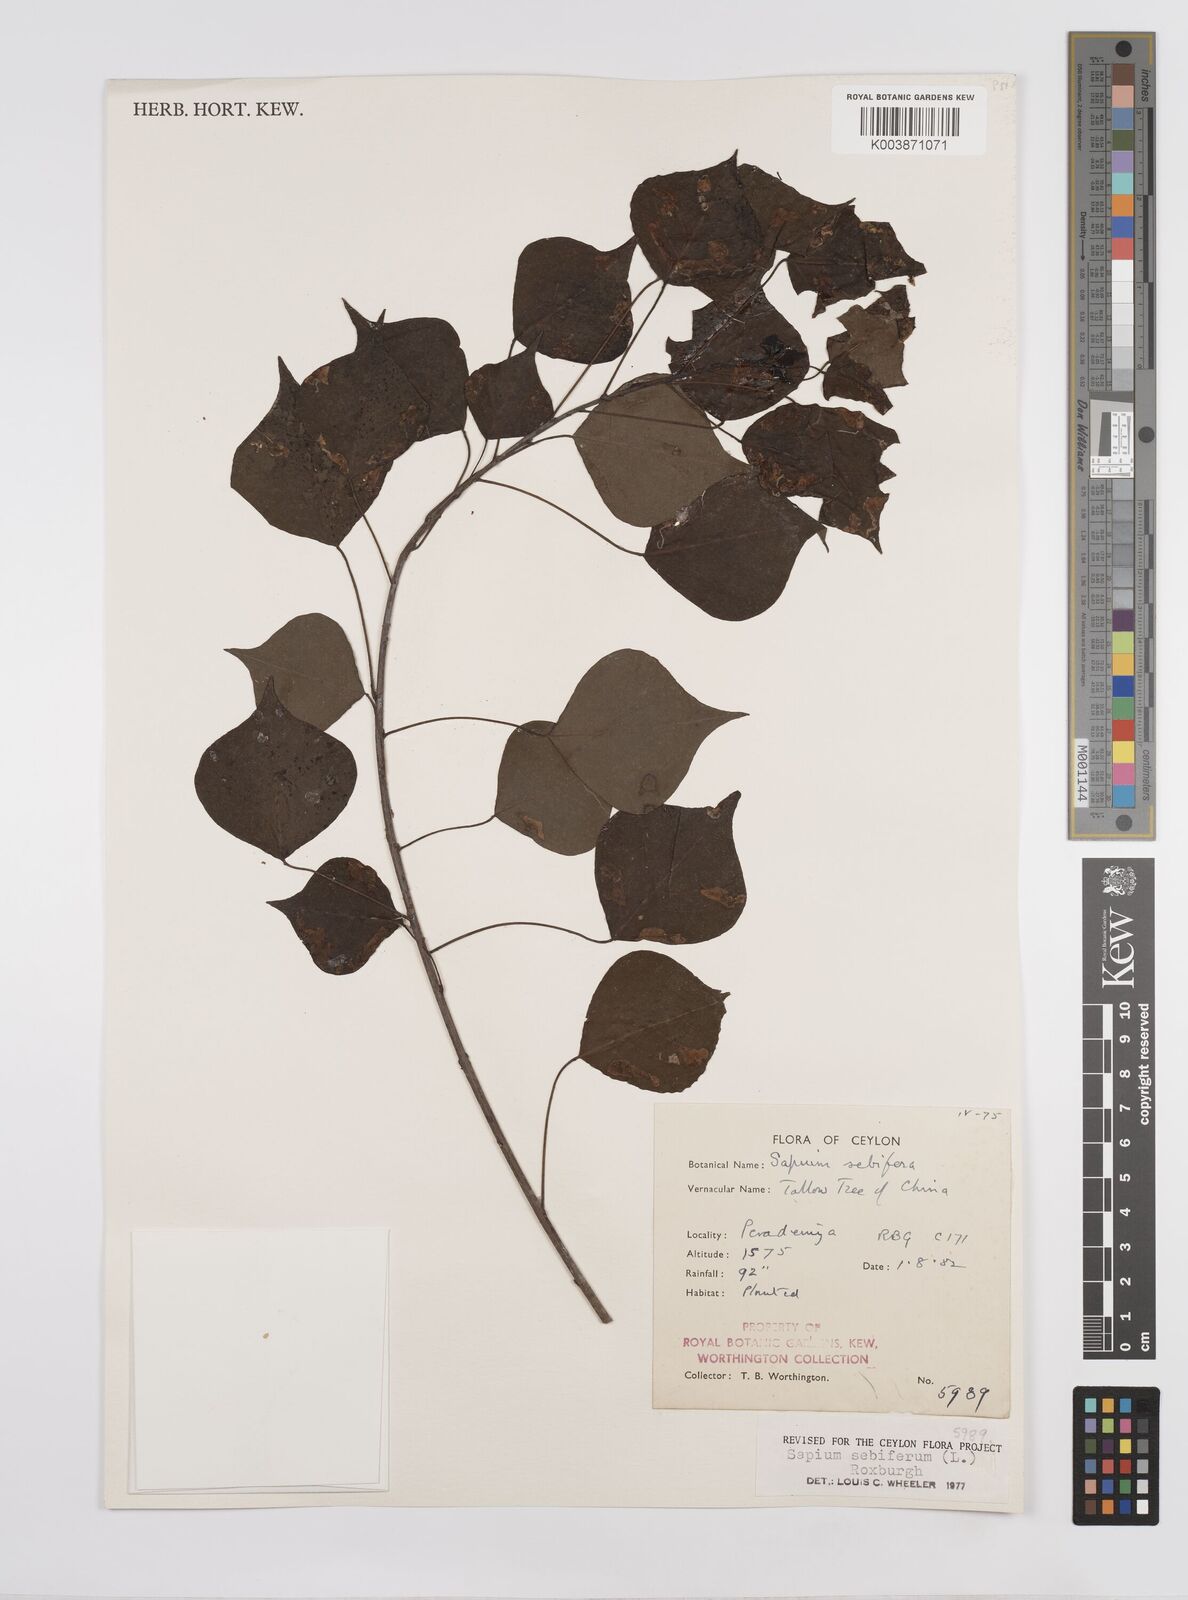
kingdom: Plantae
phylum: Tracheophyta
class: Magnoliopsida
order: Malpighiales
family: Euphorbiaceae
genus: Triadica
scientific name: Triadica sebifera
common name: Chinese tallow
